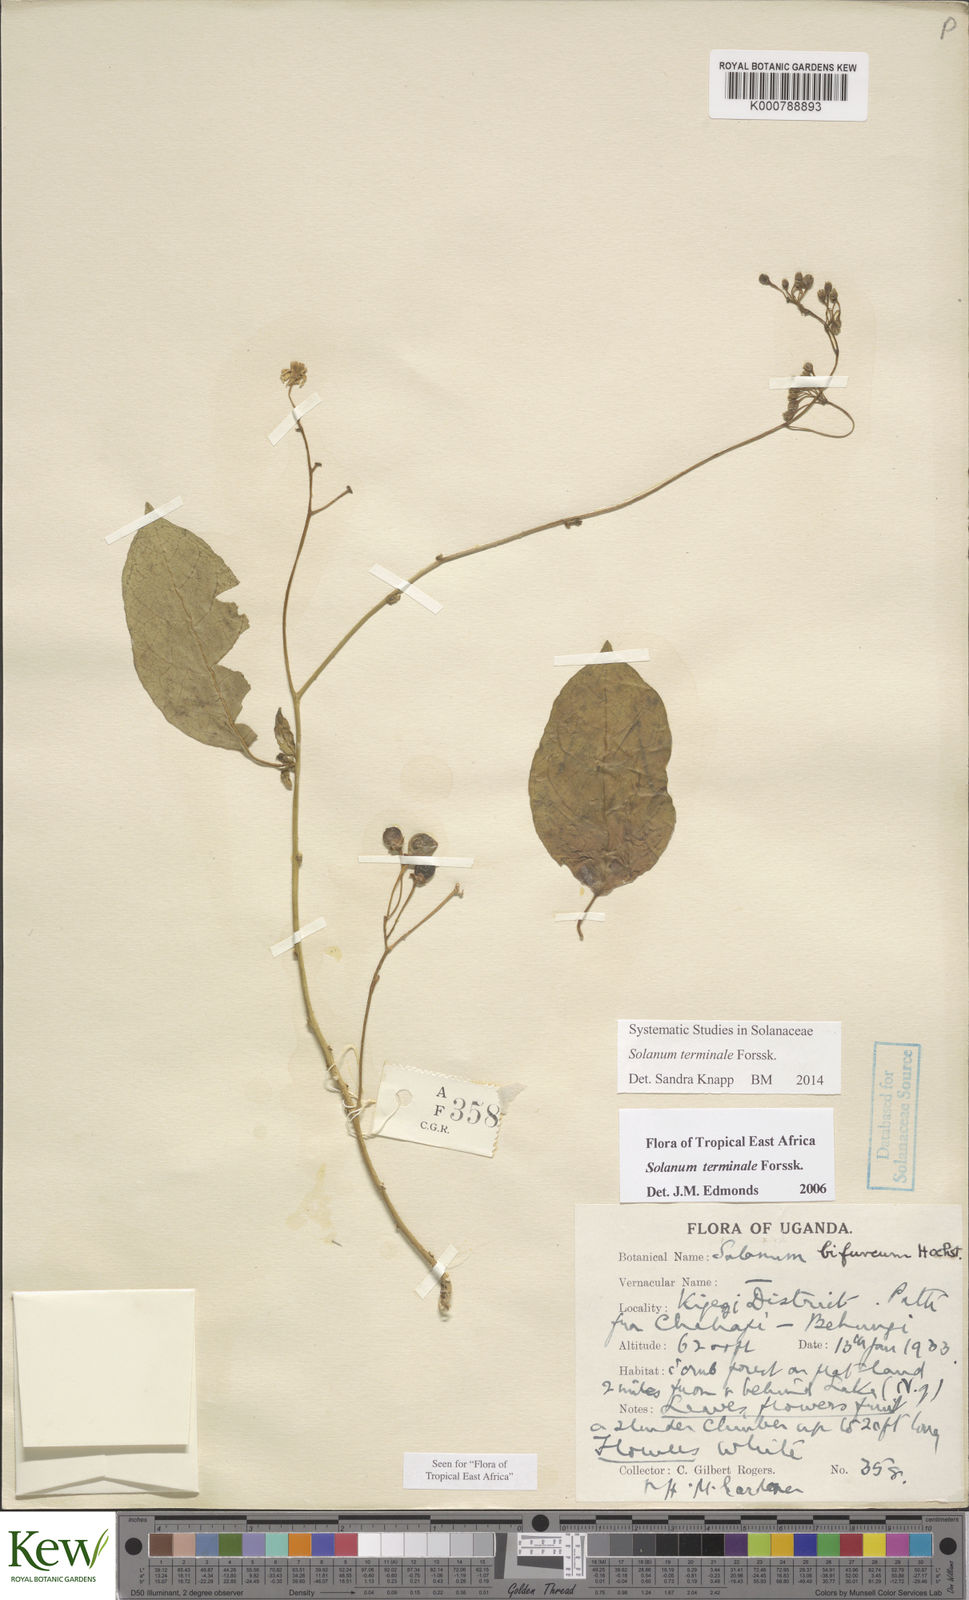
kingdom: Plantae
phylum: Tracheophyta
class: Magnoliopsida
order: Solanales
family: Solanaceae
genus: Solanum
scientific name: Solanum terminale
